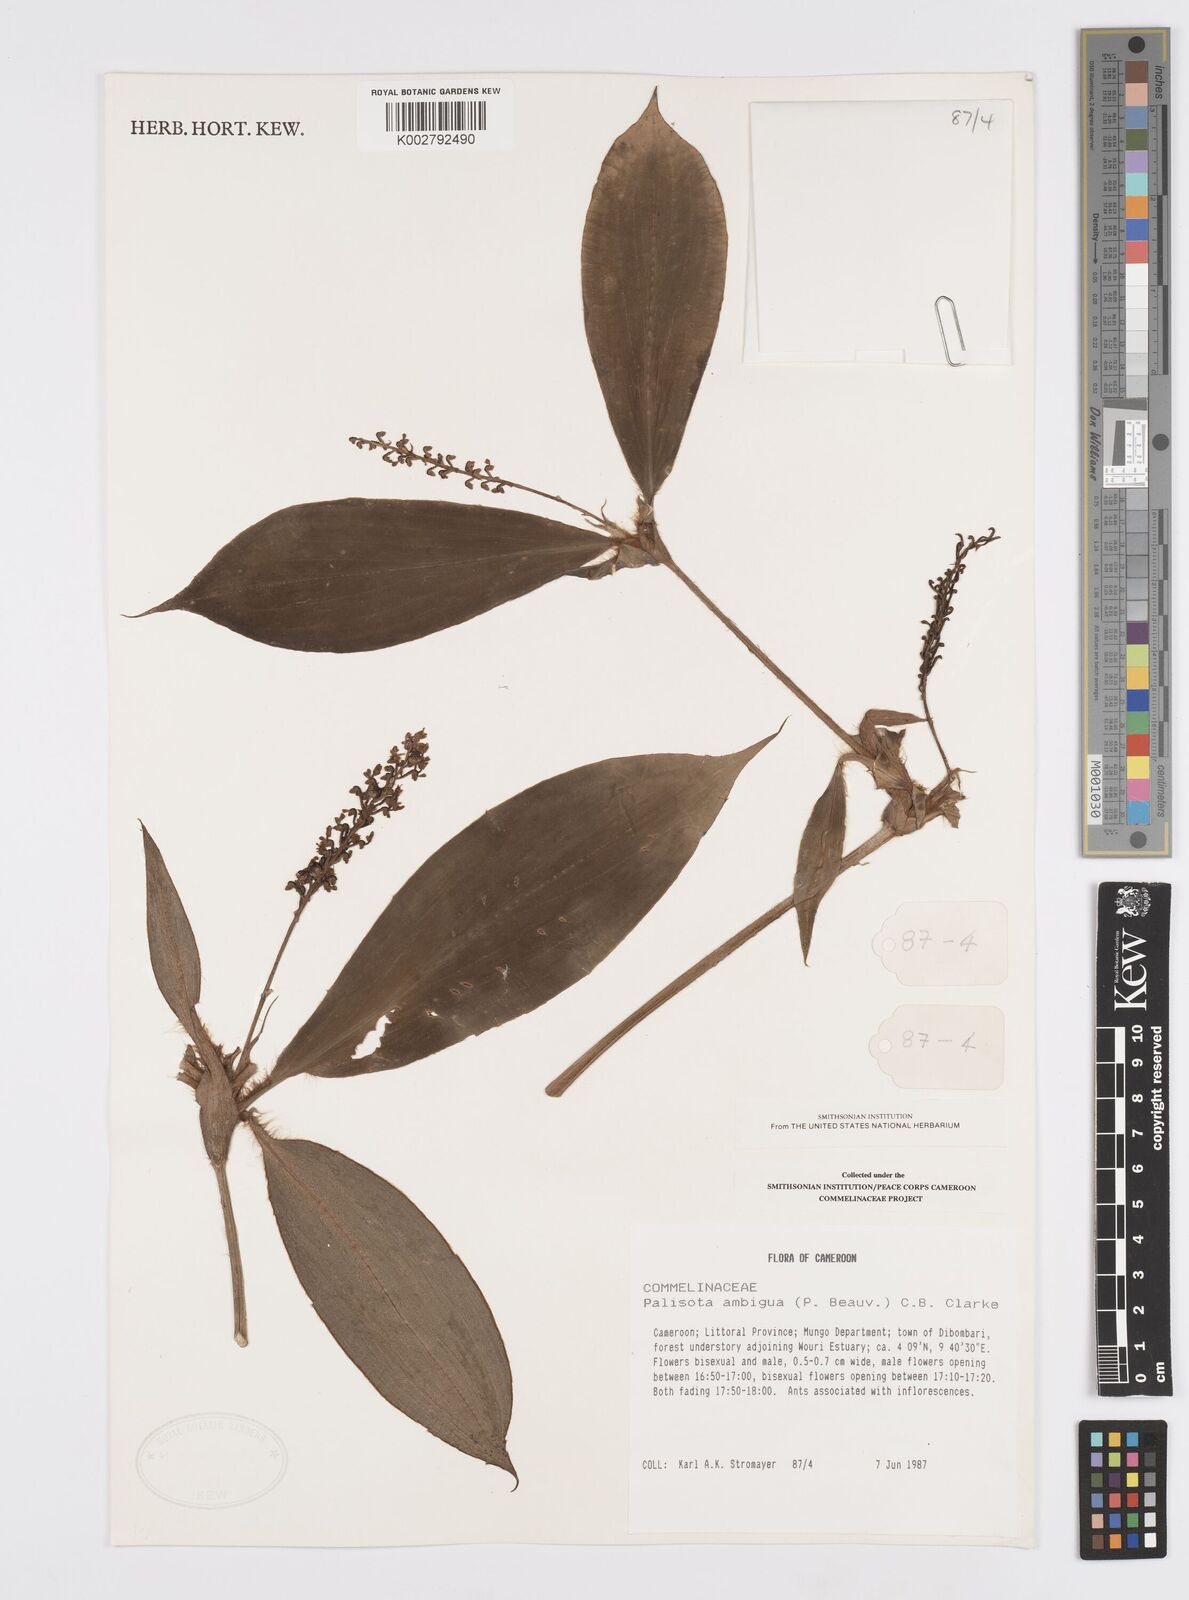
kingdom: Plantae
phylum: Tracheophyta
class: Liliopsida
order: Commelinales
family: Commelinaceae
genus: Palisota
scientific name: Palisota ambigua
